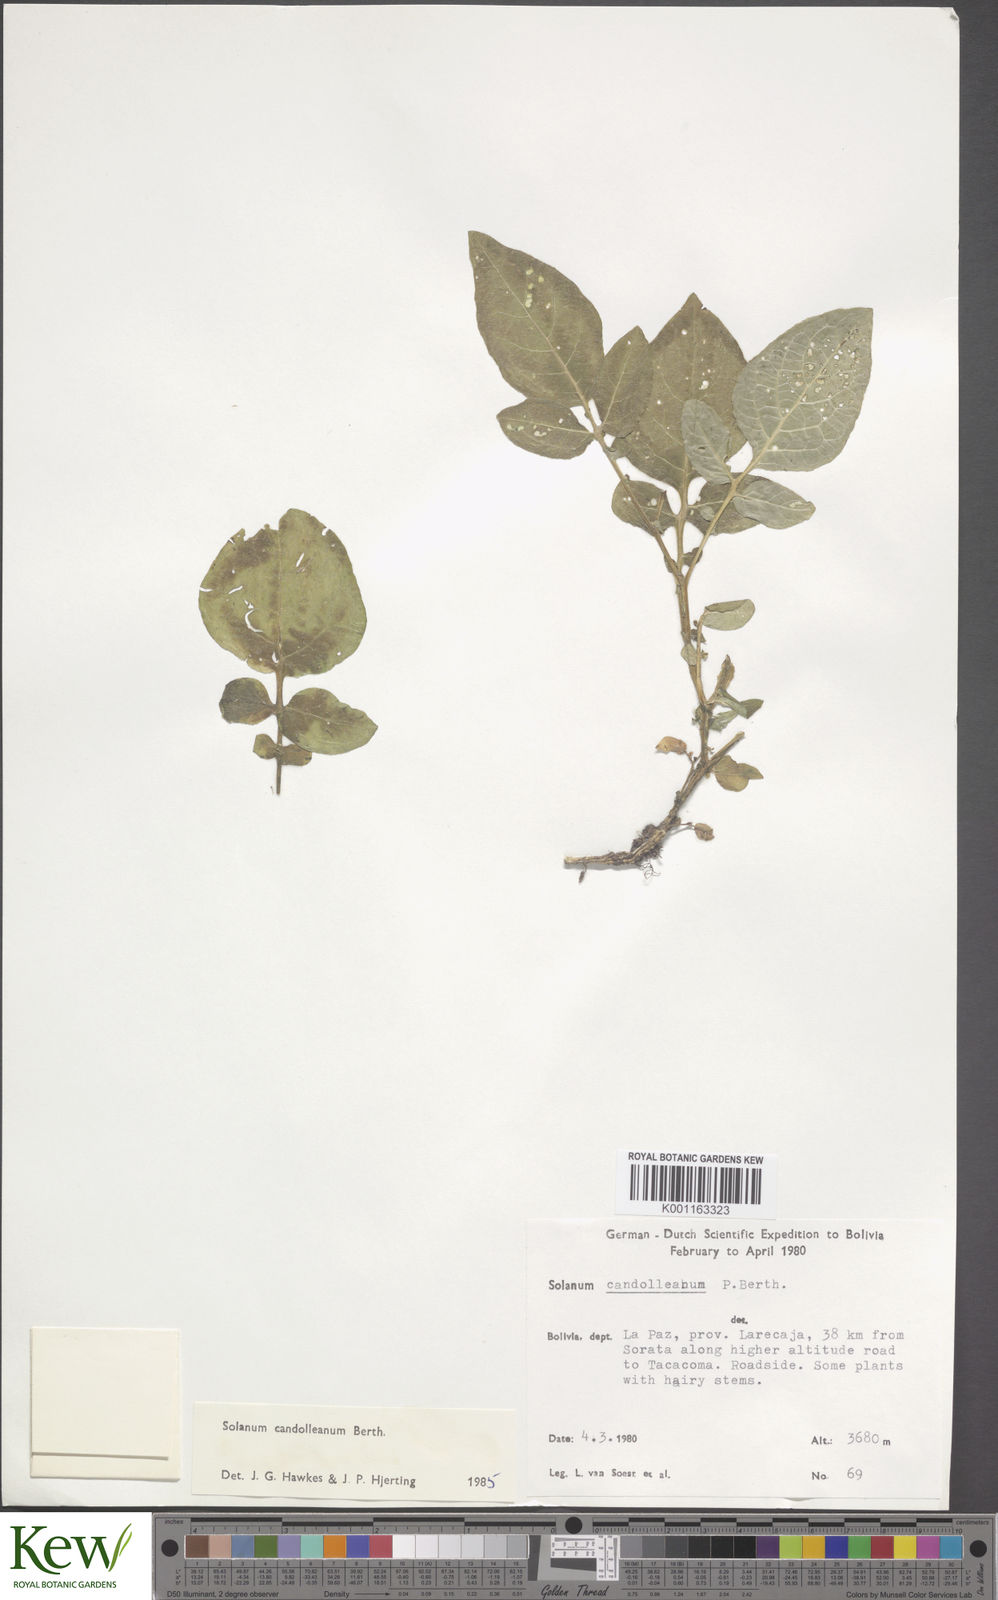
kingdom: Plantae
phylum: Tracheophyta
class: Magnoliopsida
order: Solanales
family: Solanaceae
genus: Solanum
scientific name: Solanum candolleanum
